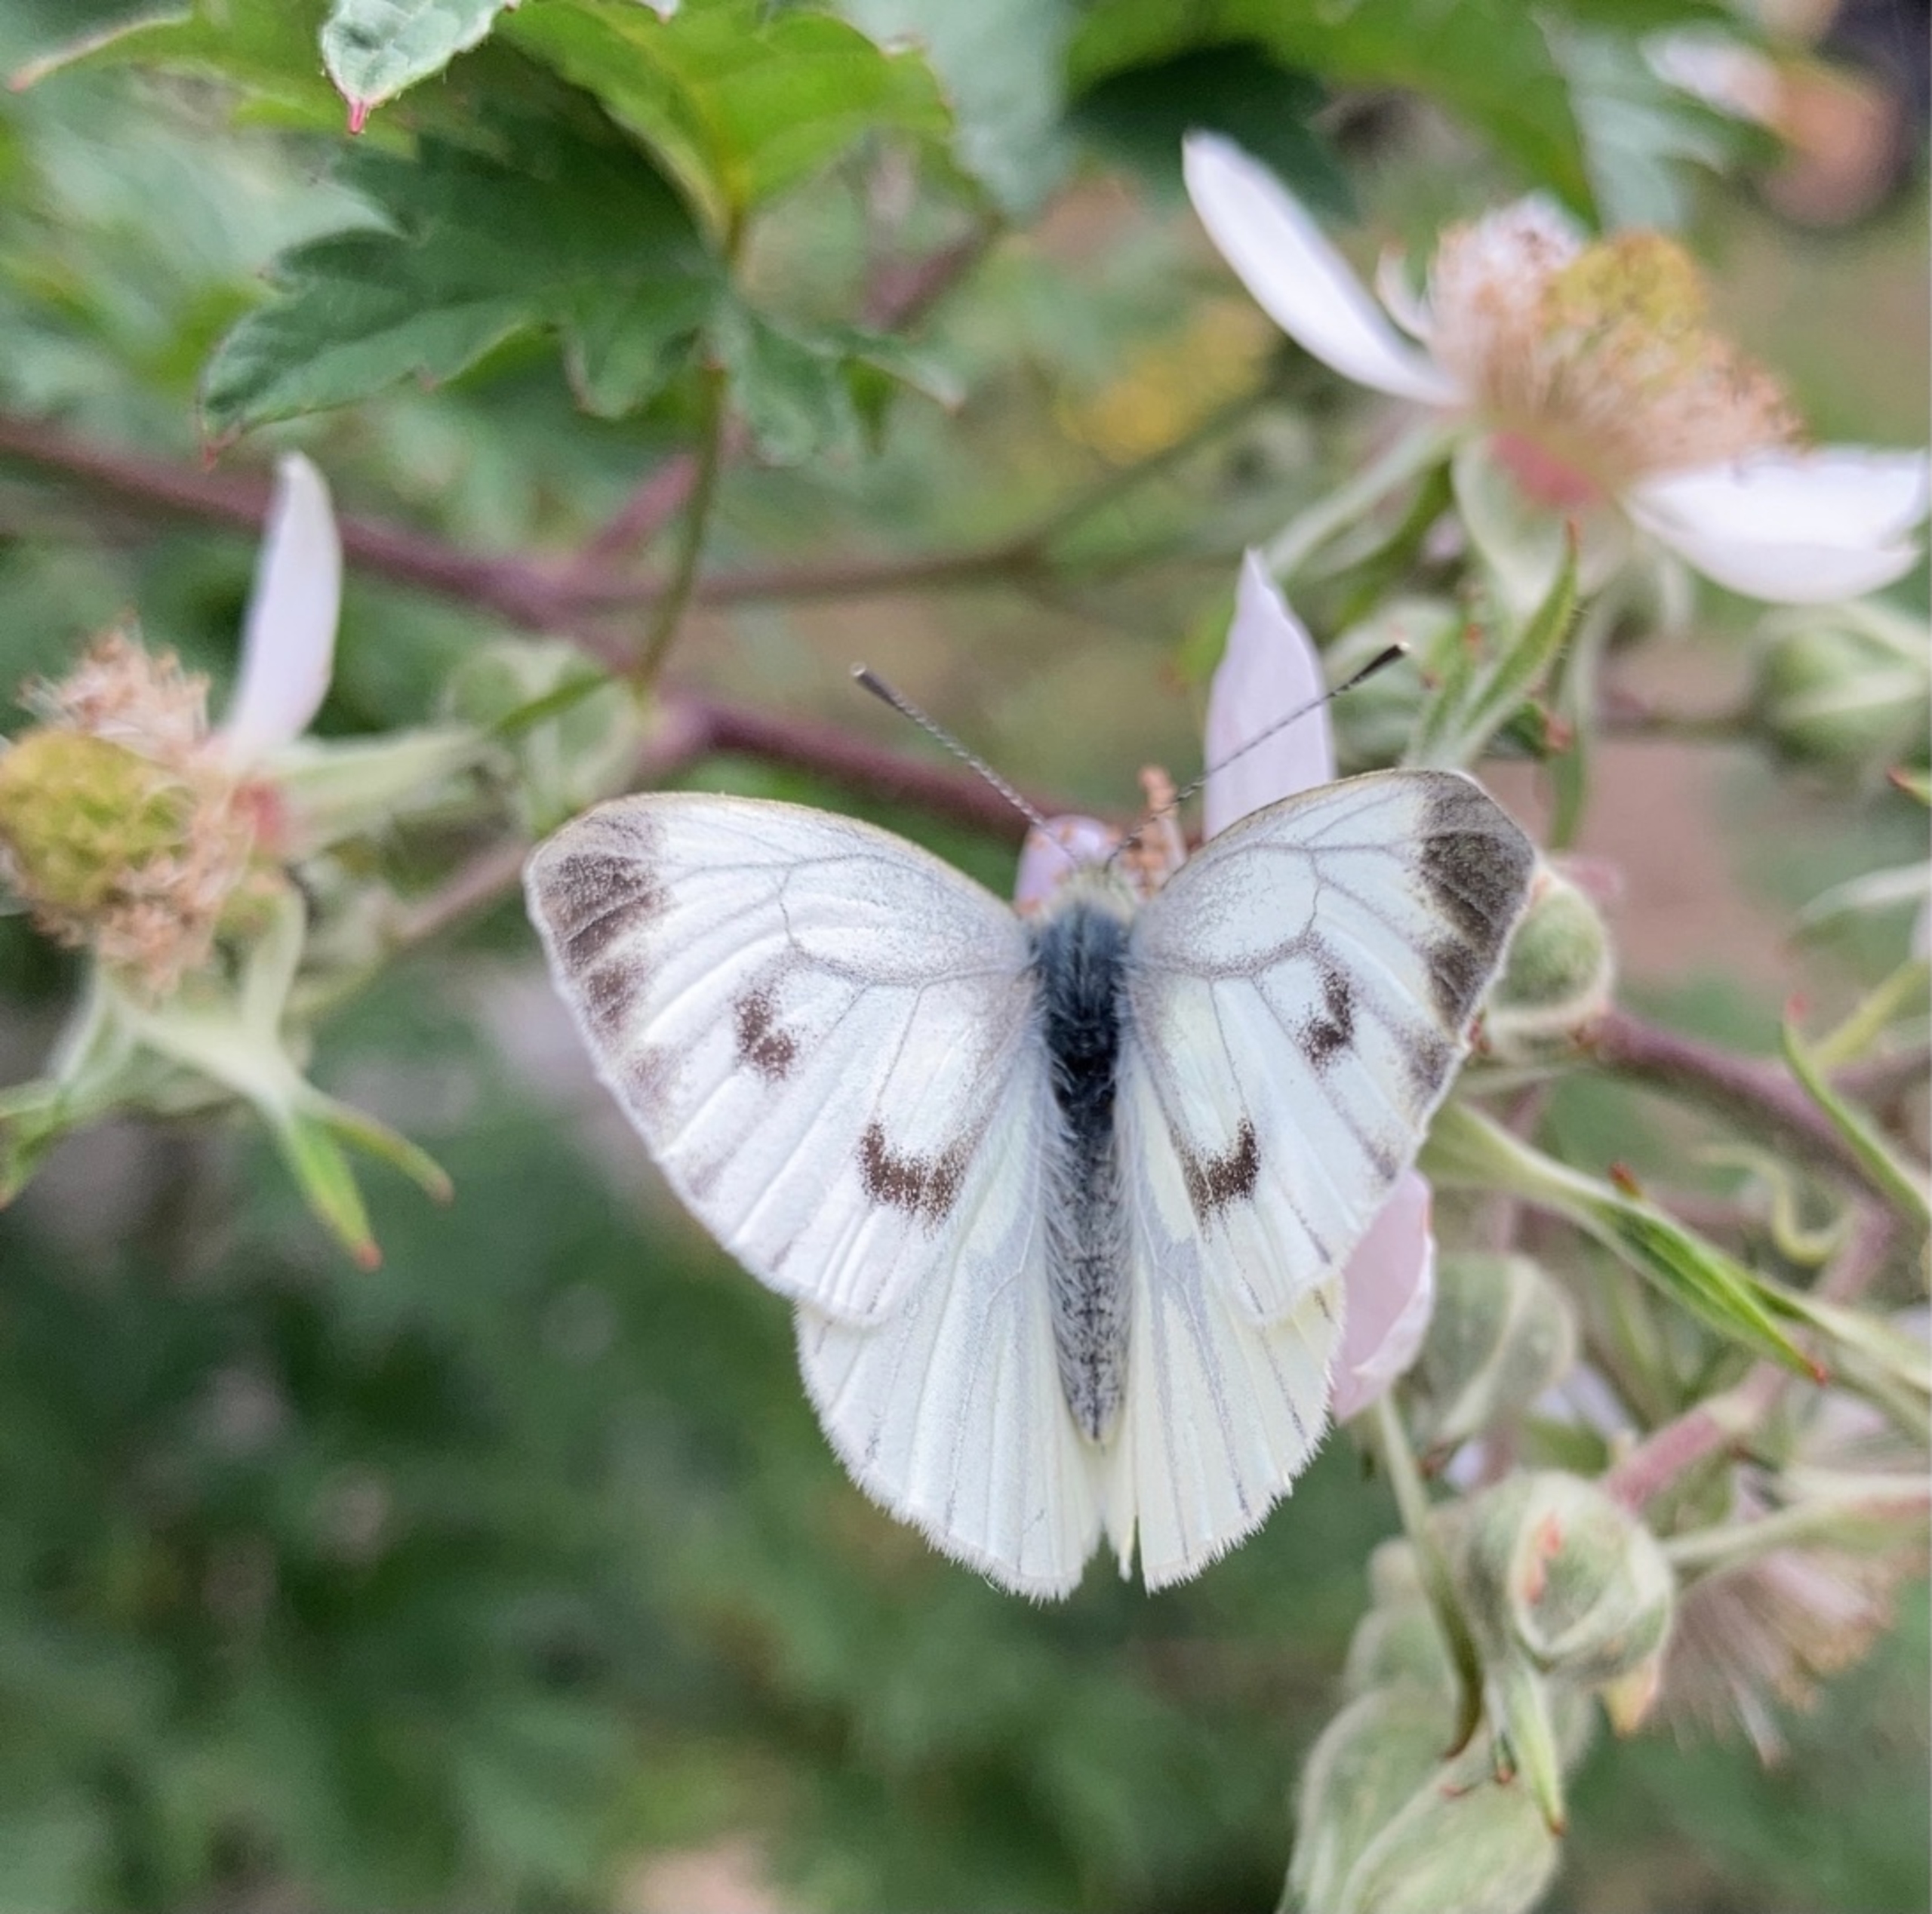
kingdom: Animalia
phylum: Arthropoda
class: Insecta
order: Lepidoptera
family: Pieridae
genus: Pieris
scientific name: Pieris napi
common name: Grønåret kålsommerfugl
